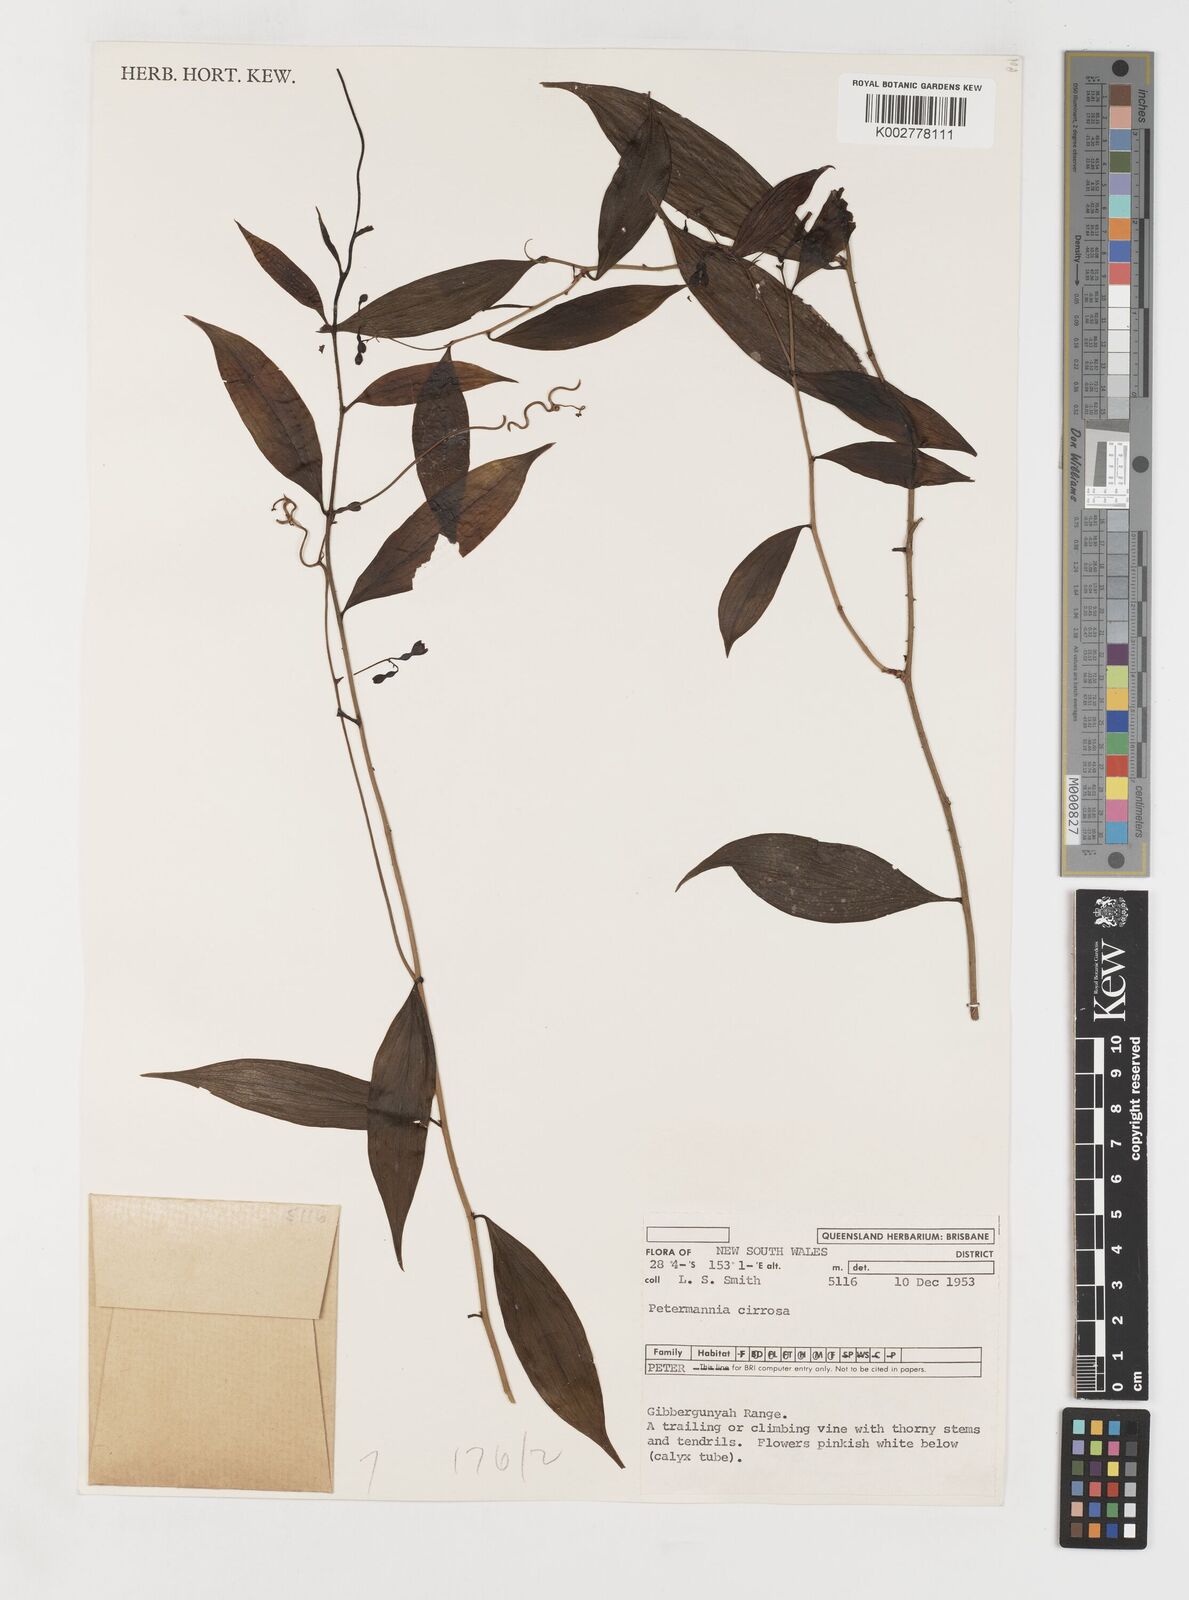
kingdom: Plantae
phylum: Tracheophyta
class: Liliopsida
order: Liliales
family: Petermanniaceae
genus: Petermannia
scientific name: Petermannia cirrosa
